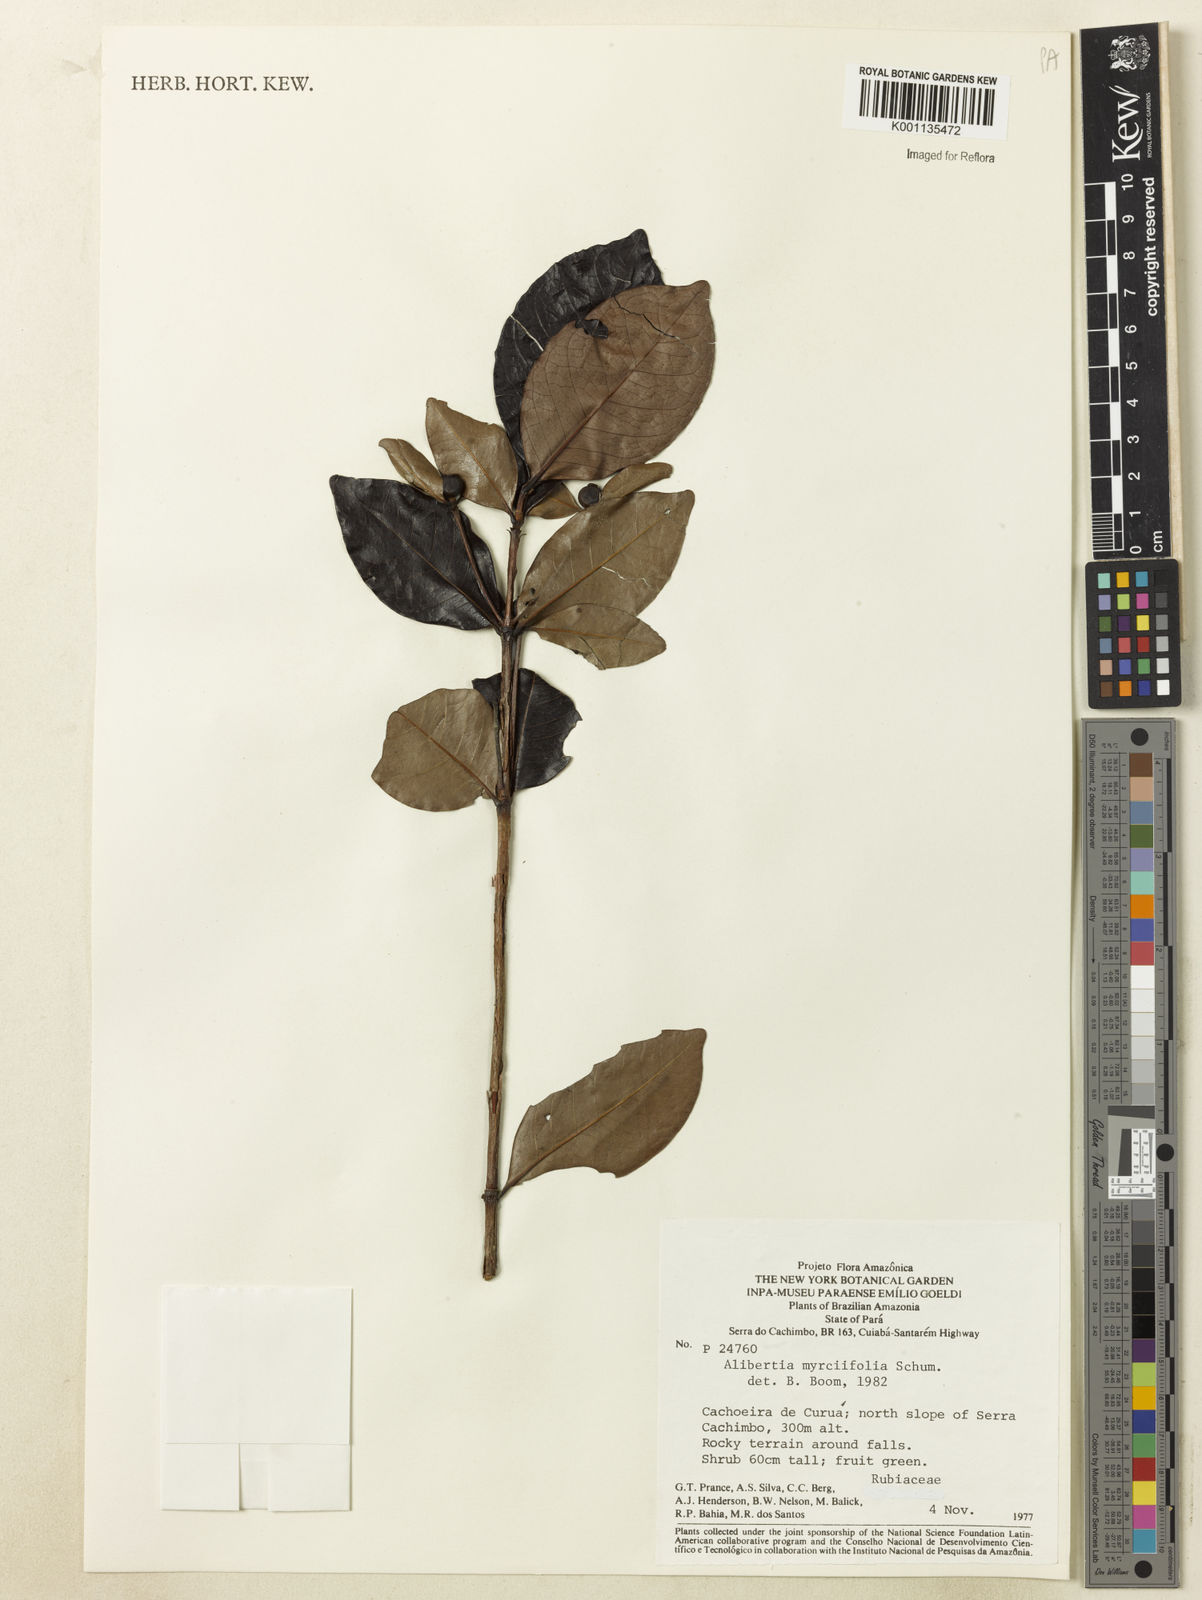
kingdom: Plantae
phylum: Tracheophyta
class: Magnoliopsida
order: Gentianales
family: Rubiaceae
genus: Cordiera
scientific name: Cordiera myrciifolia
